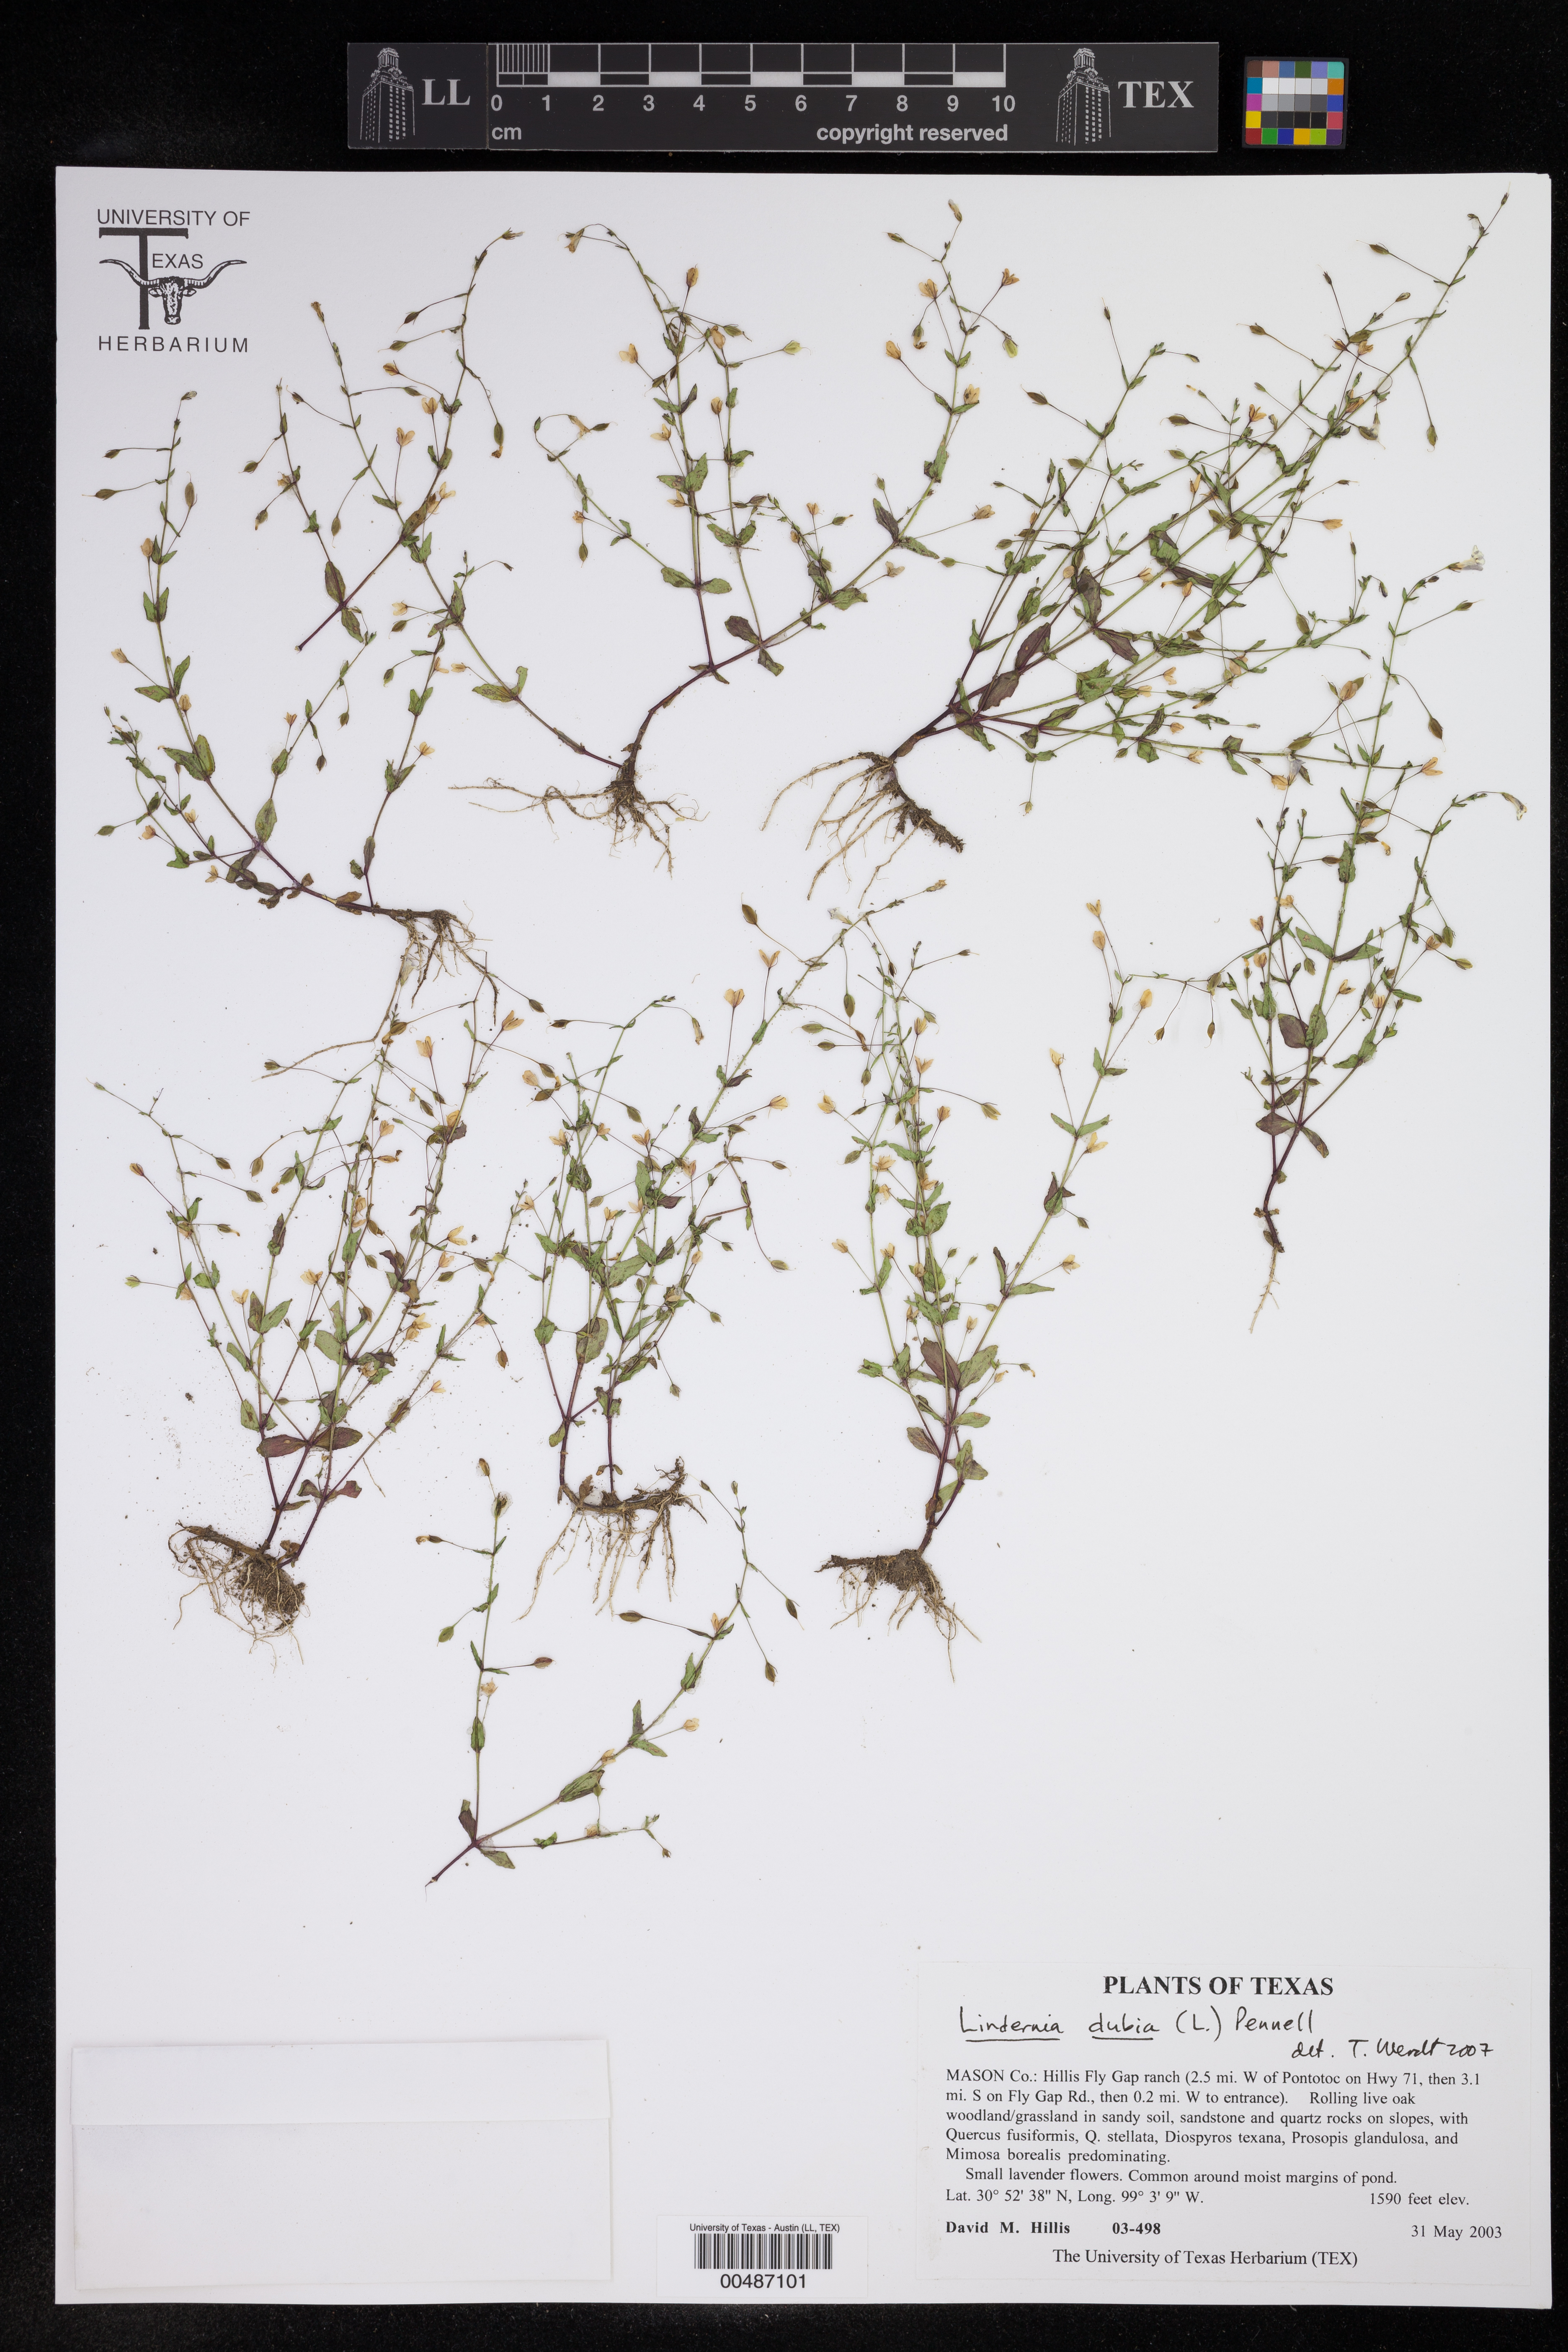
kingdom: Plantae
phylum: Tracheophyta
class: Magnoliopsida
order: Lamiales
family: Linderniaceae
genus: Lindernia
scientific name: Lindernia dubia
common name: Annual false pimpernel
